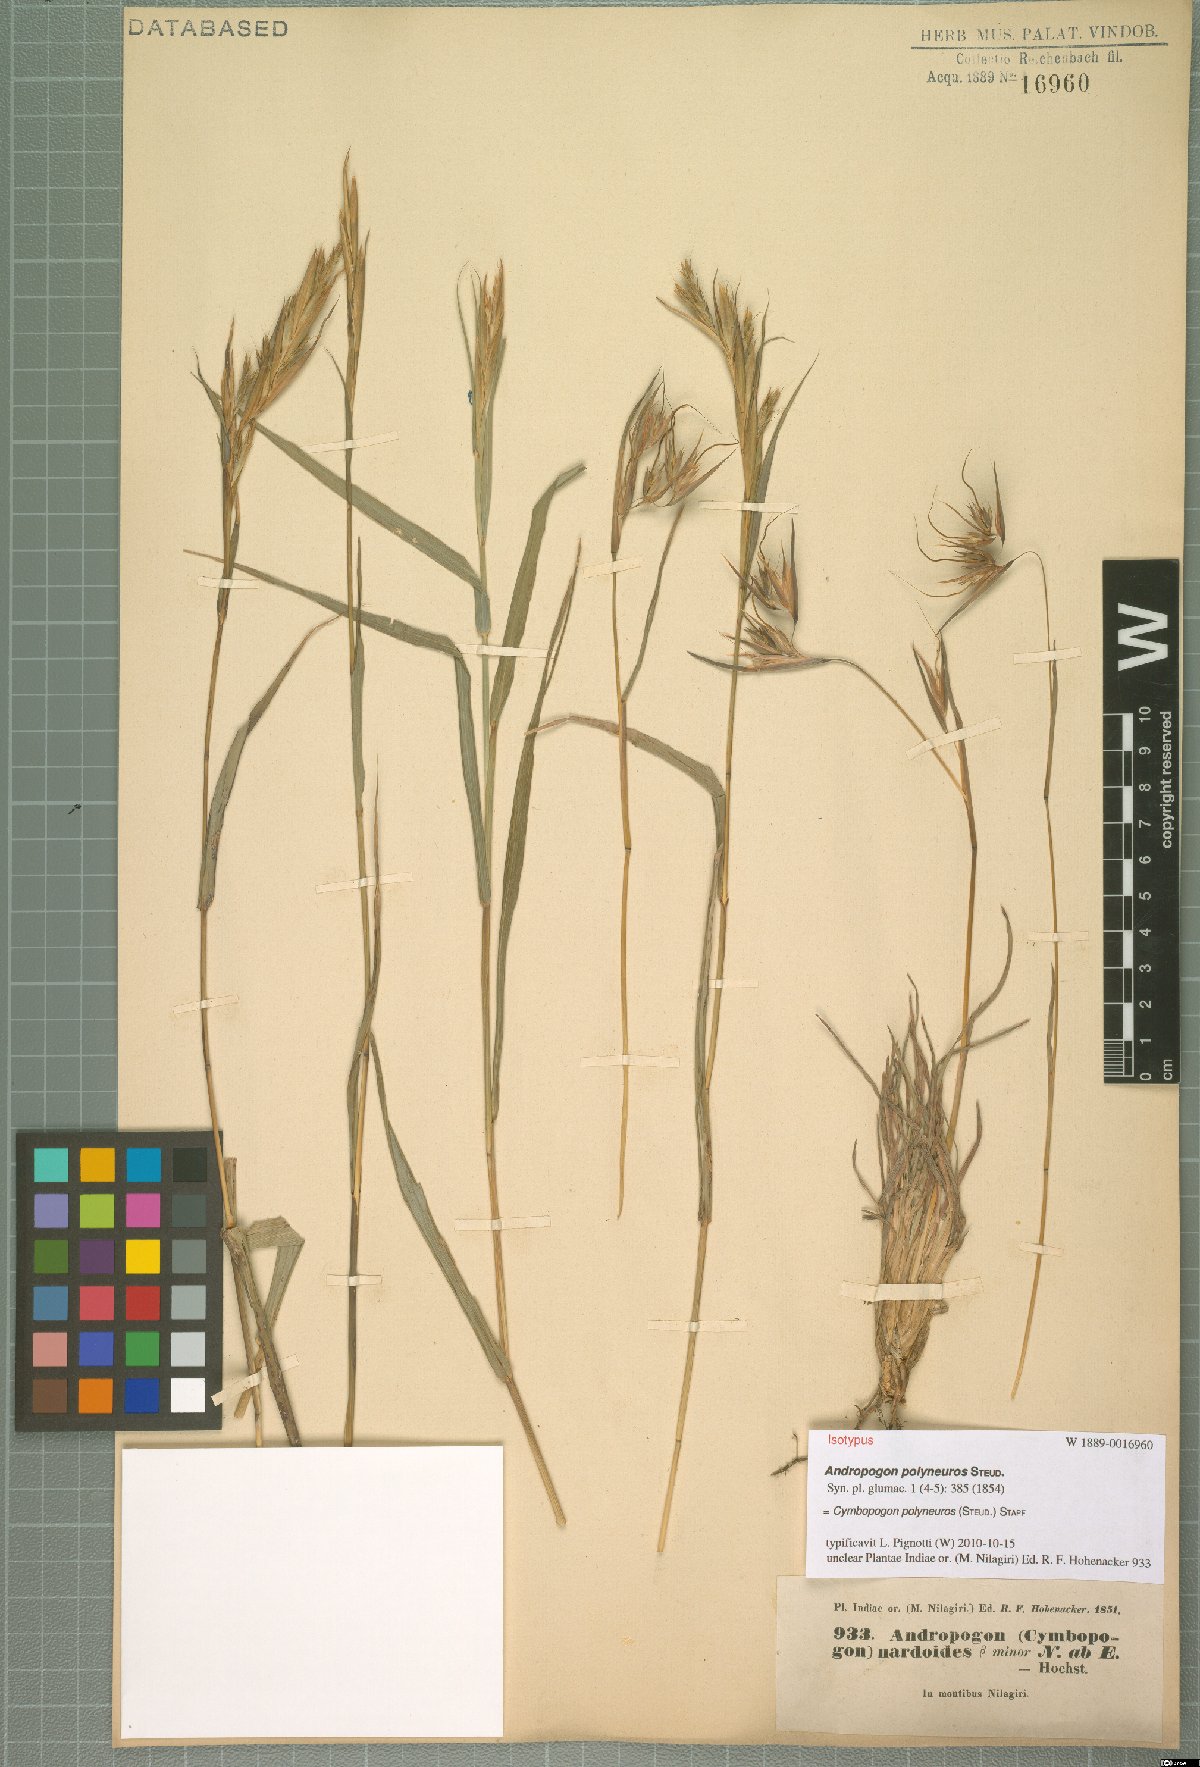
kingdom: Plantae
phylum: Tracheophyta
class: Liliopsida
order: Poales
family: Poaceae
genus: Cymbopogon
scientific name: Cymbopogon polyneuros
